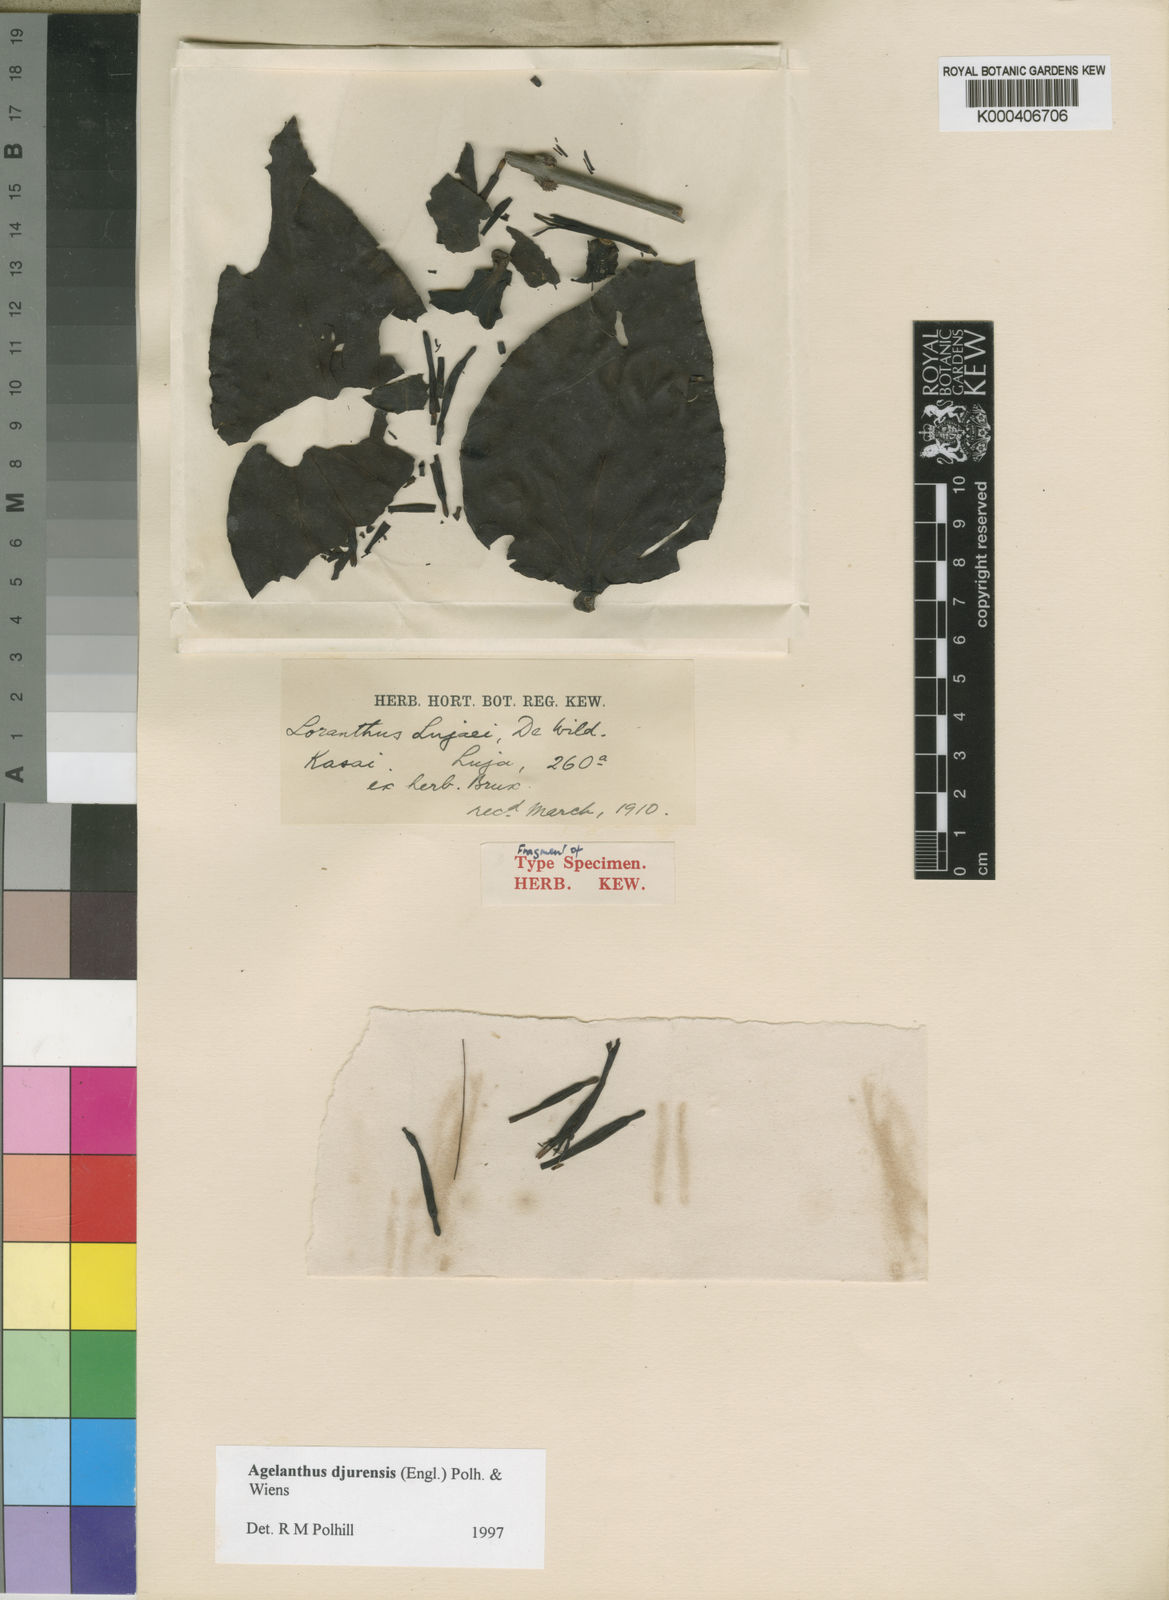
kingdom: Plantae
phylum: Tracheophyta
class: Magnoliopsida
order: Santalales
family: Loranthaceae
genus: Agelanthus
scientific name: Agelanthus djurensis
